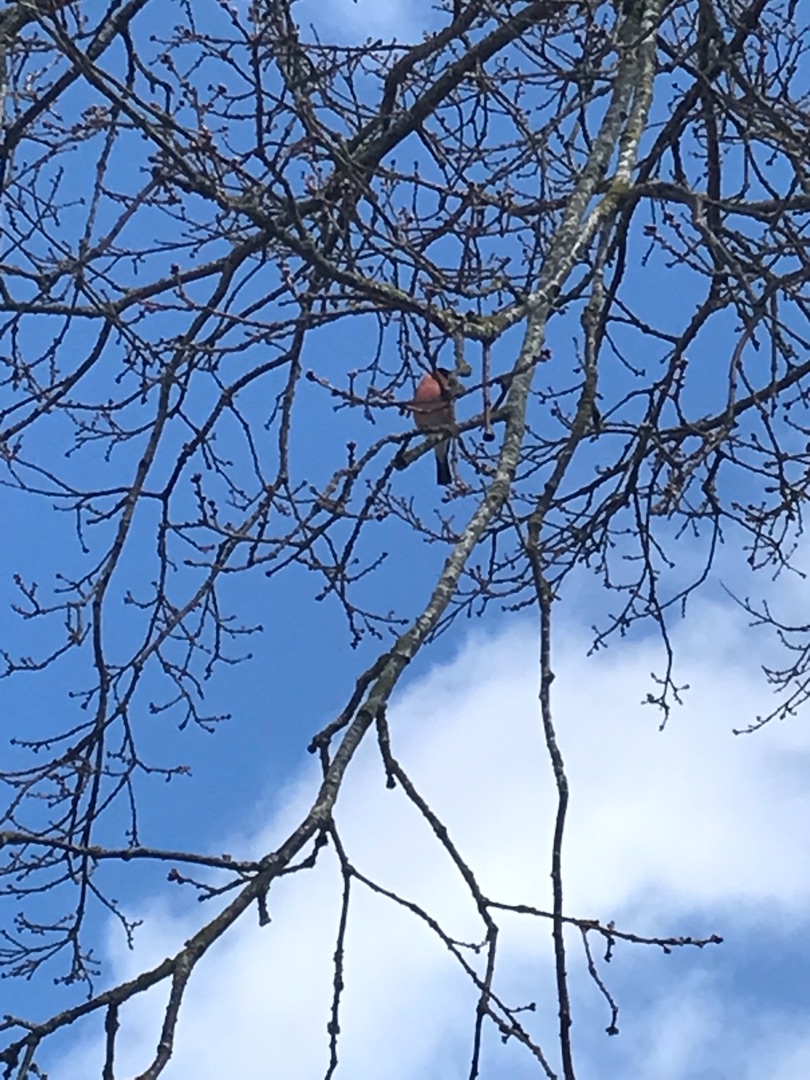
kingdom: Animalia
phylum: Chordata
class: Aves
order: Passeriformes
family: Fringillidae
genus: Pyrrhula
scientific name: Pyrrhula pyrrhula
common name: Dompap
